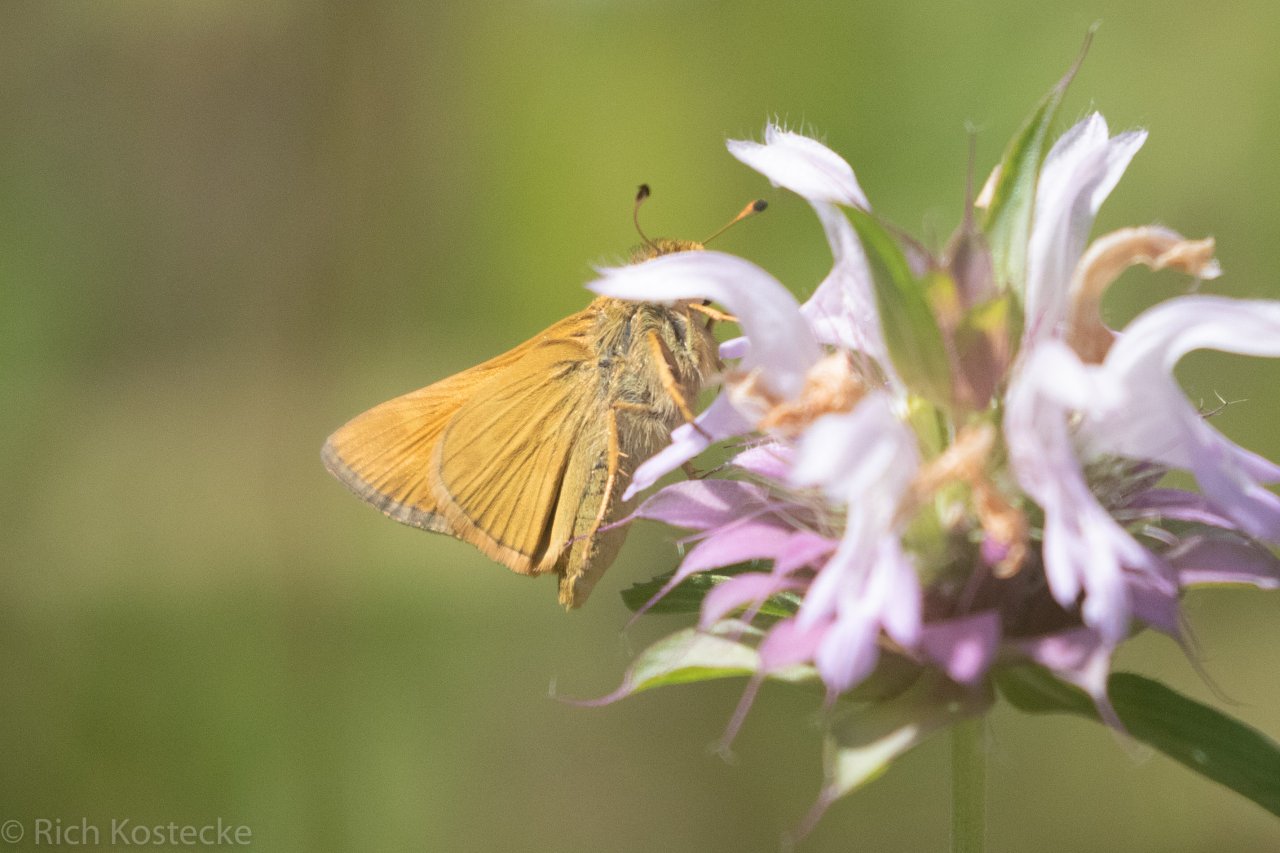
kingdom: Animalia
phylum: Arthropoda
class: Insecta
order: Lepidoptera
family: Hesperiidae
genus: Atalopedes
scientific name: Atalopedes campestris
